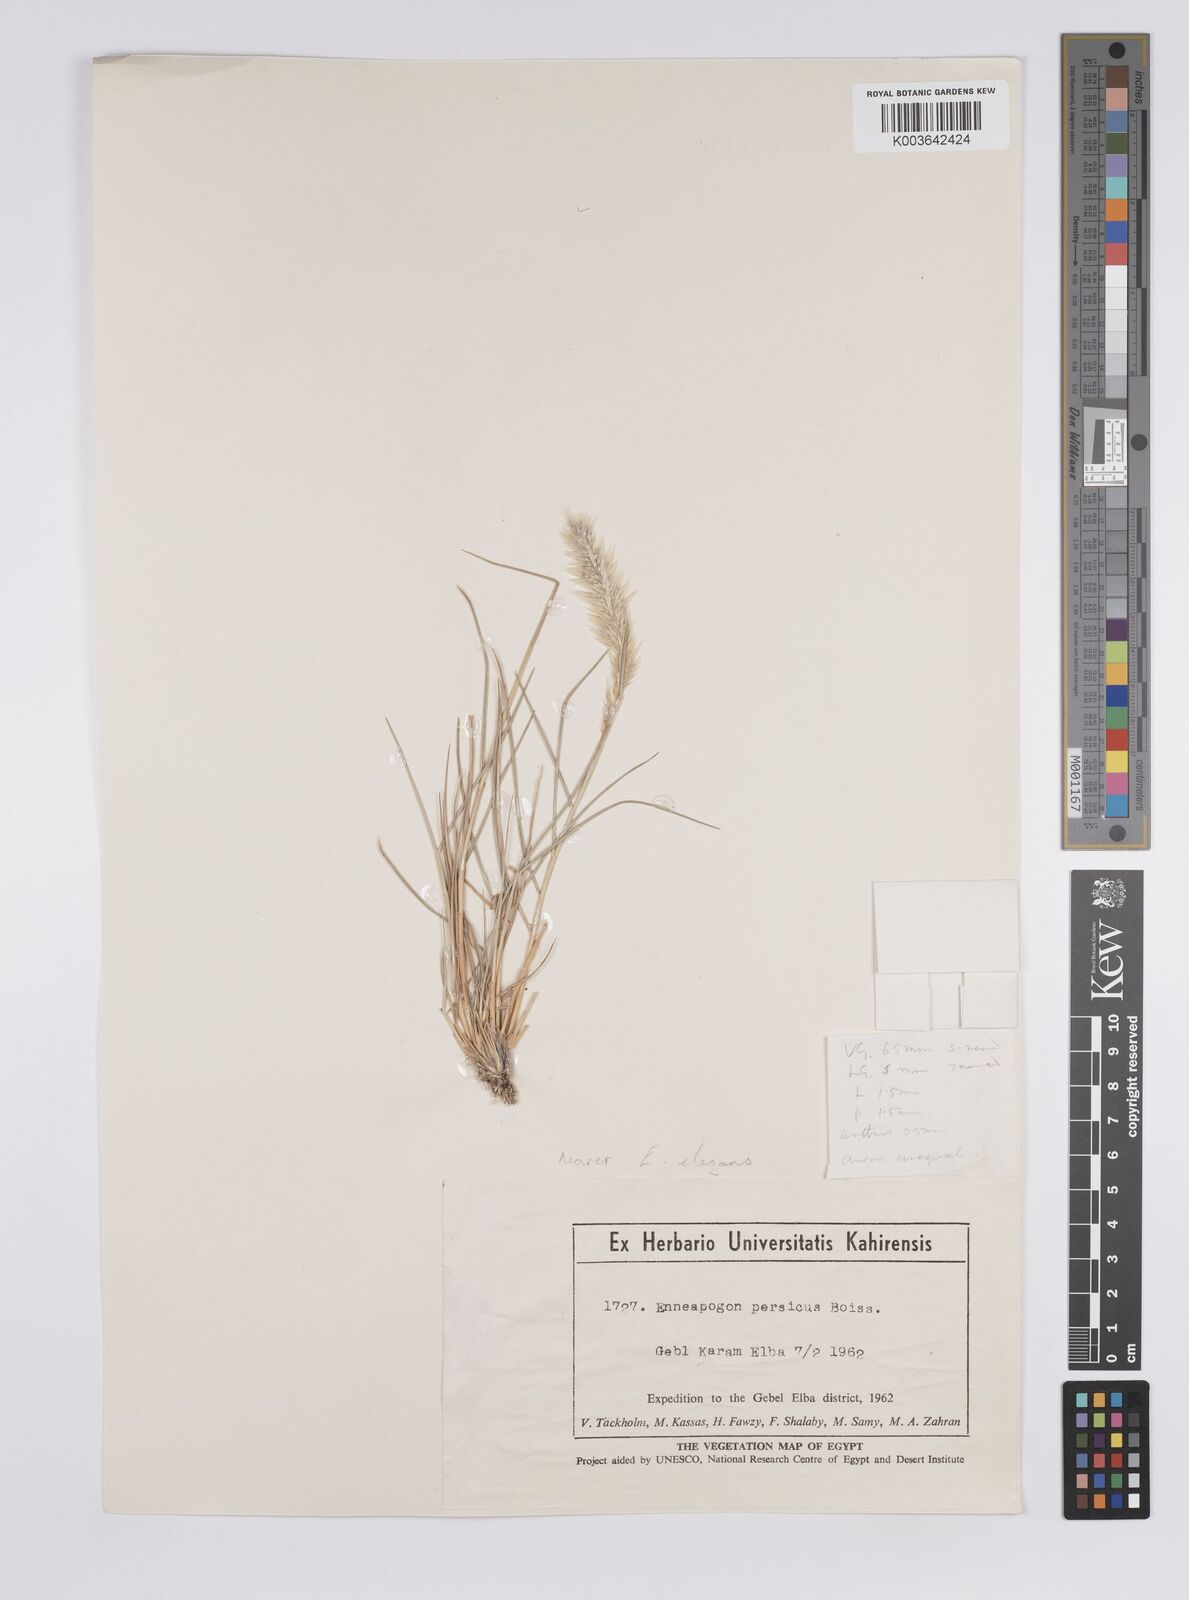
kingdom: Plantae
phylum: Tracheophyta
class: Liliopsida
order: Poales
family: Poaceae
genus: Enneapogon
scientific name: Enneapogon persicus
